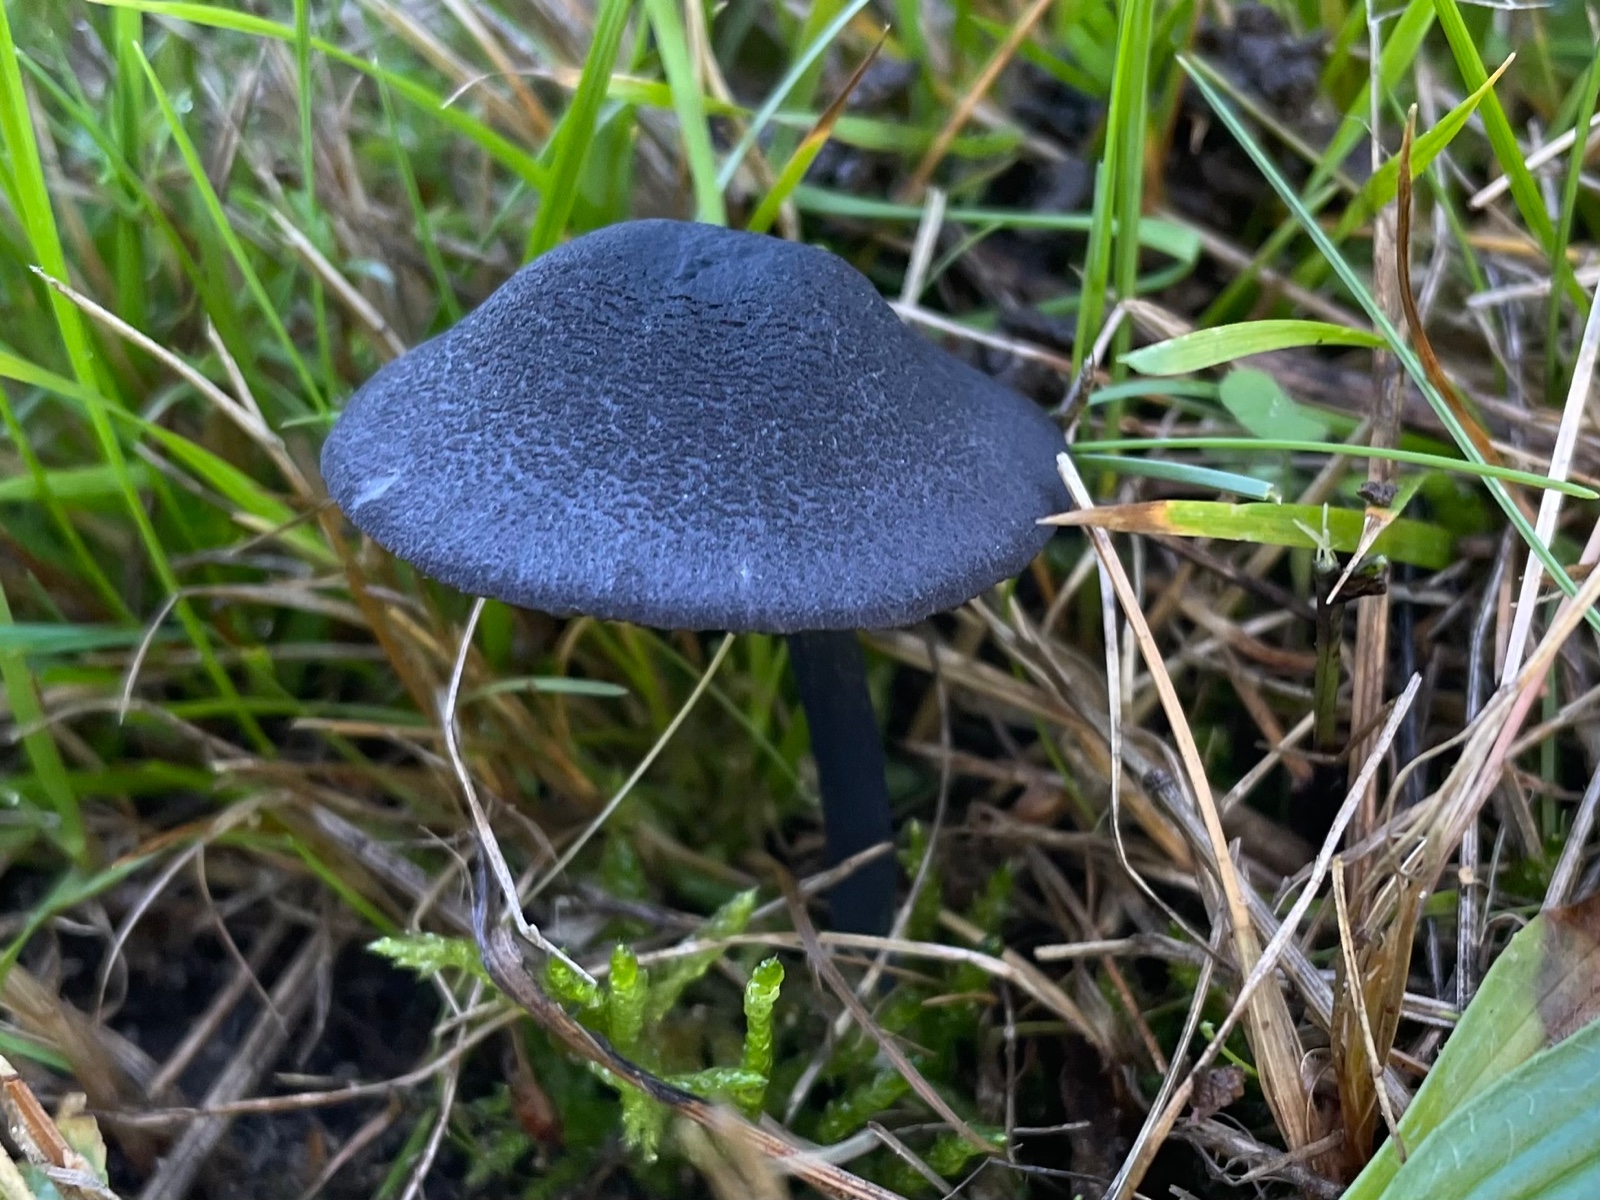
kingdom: Fungi
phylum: Basidiomycota
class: Agaricomycetes
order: Agaricales
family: Entolomataceae
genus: Entoloma
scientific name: Entoloma
